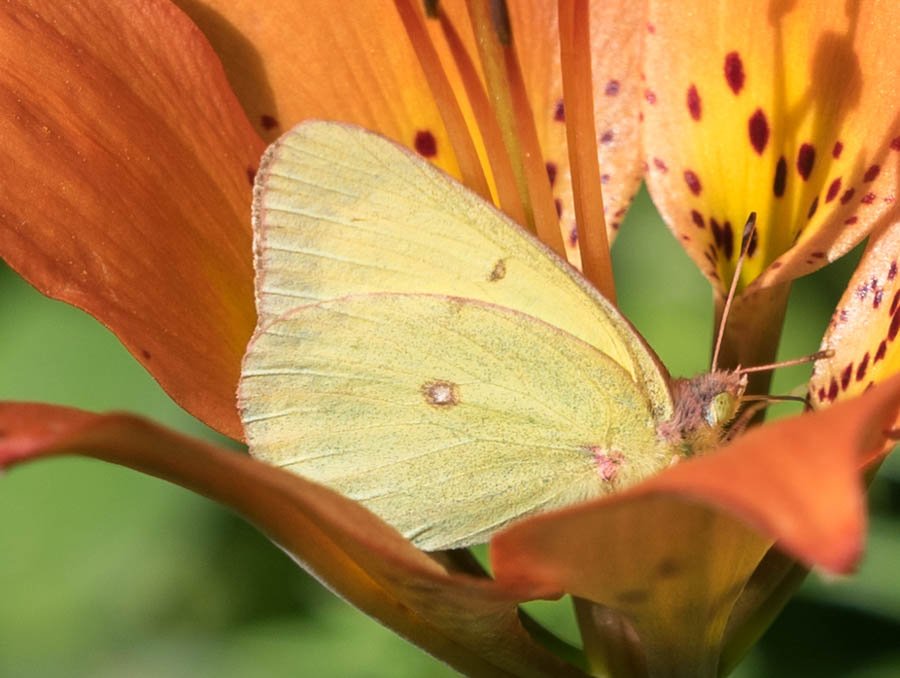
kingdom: Animalia
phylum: Arthropoda
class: Insecta
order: Lepidoptera
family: Pieridae
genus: Colias
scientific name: Colias interior
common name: Pink-edged Sulphur
